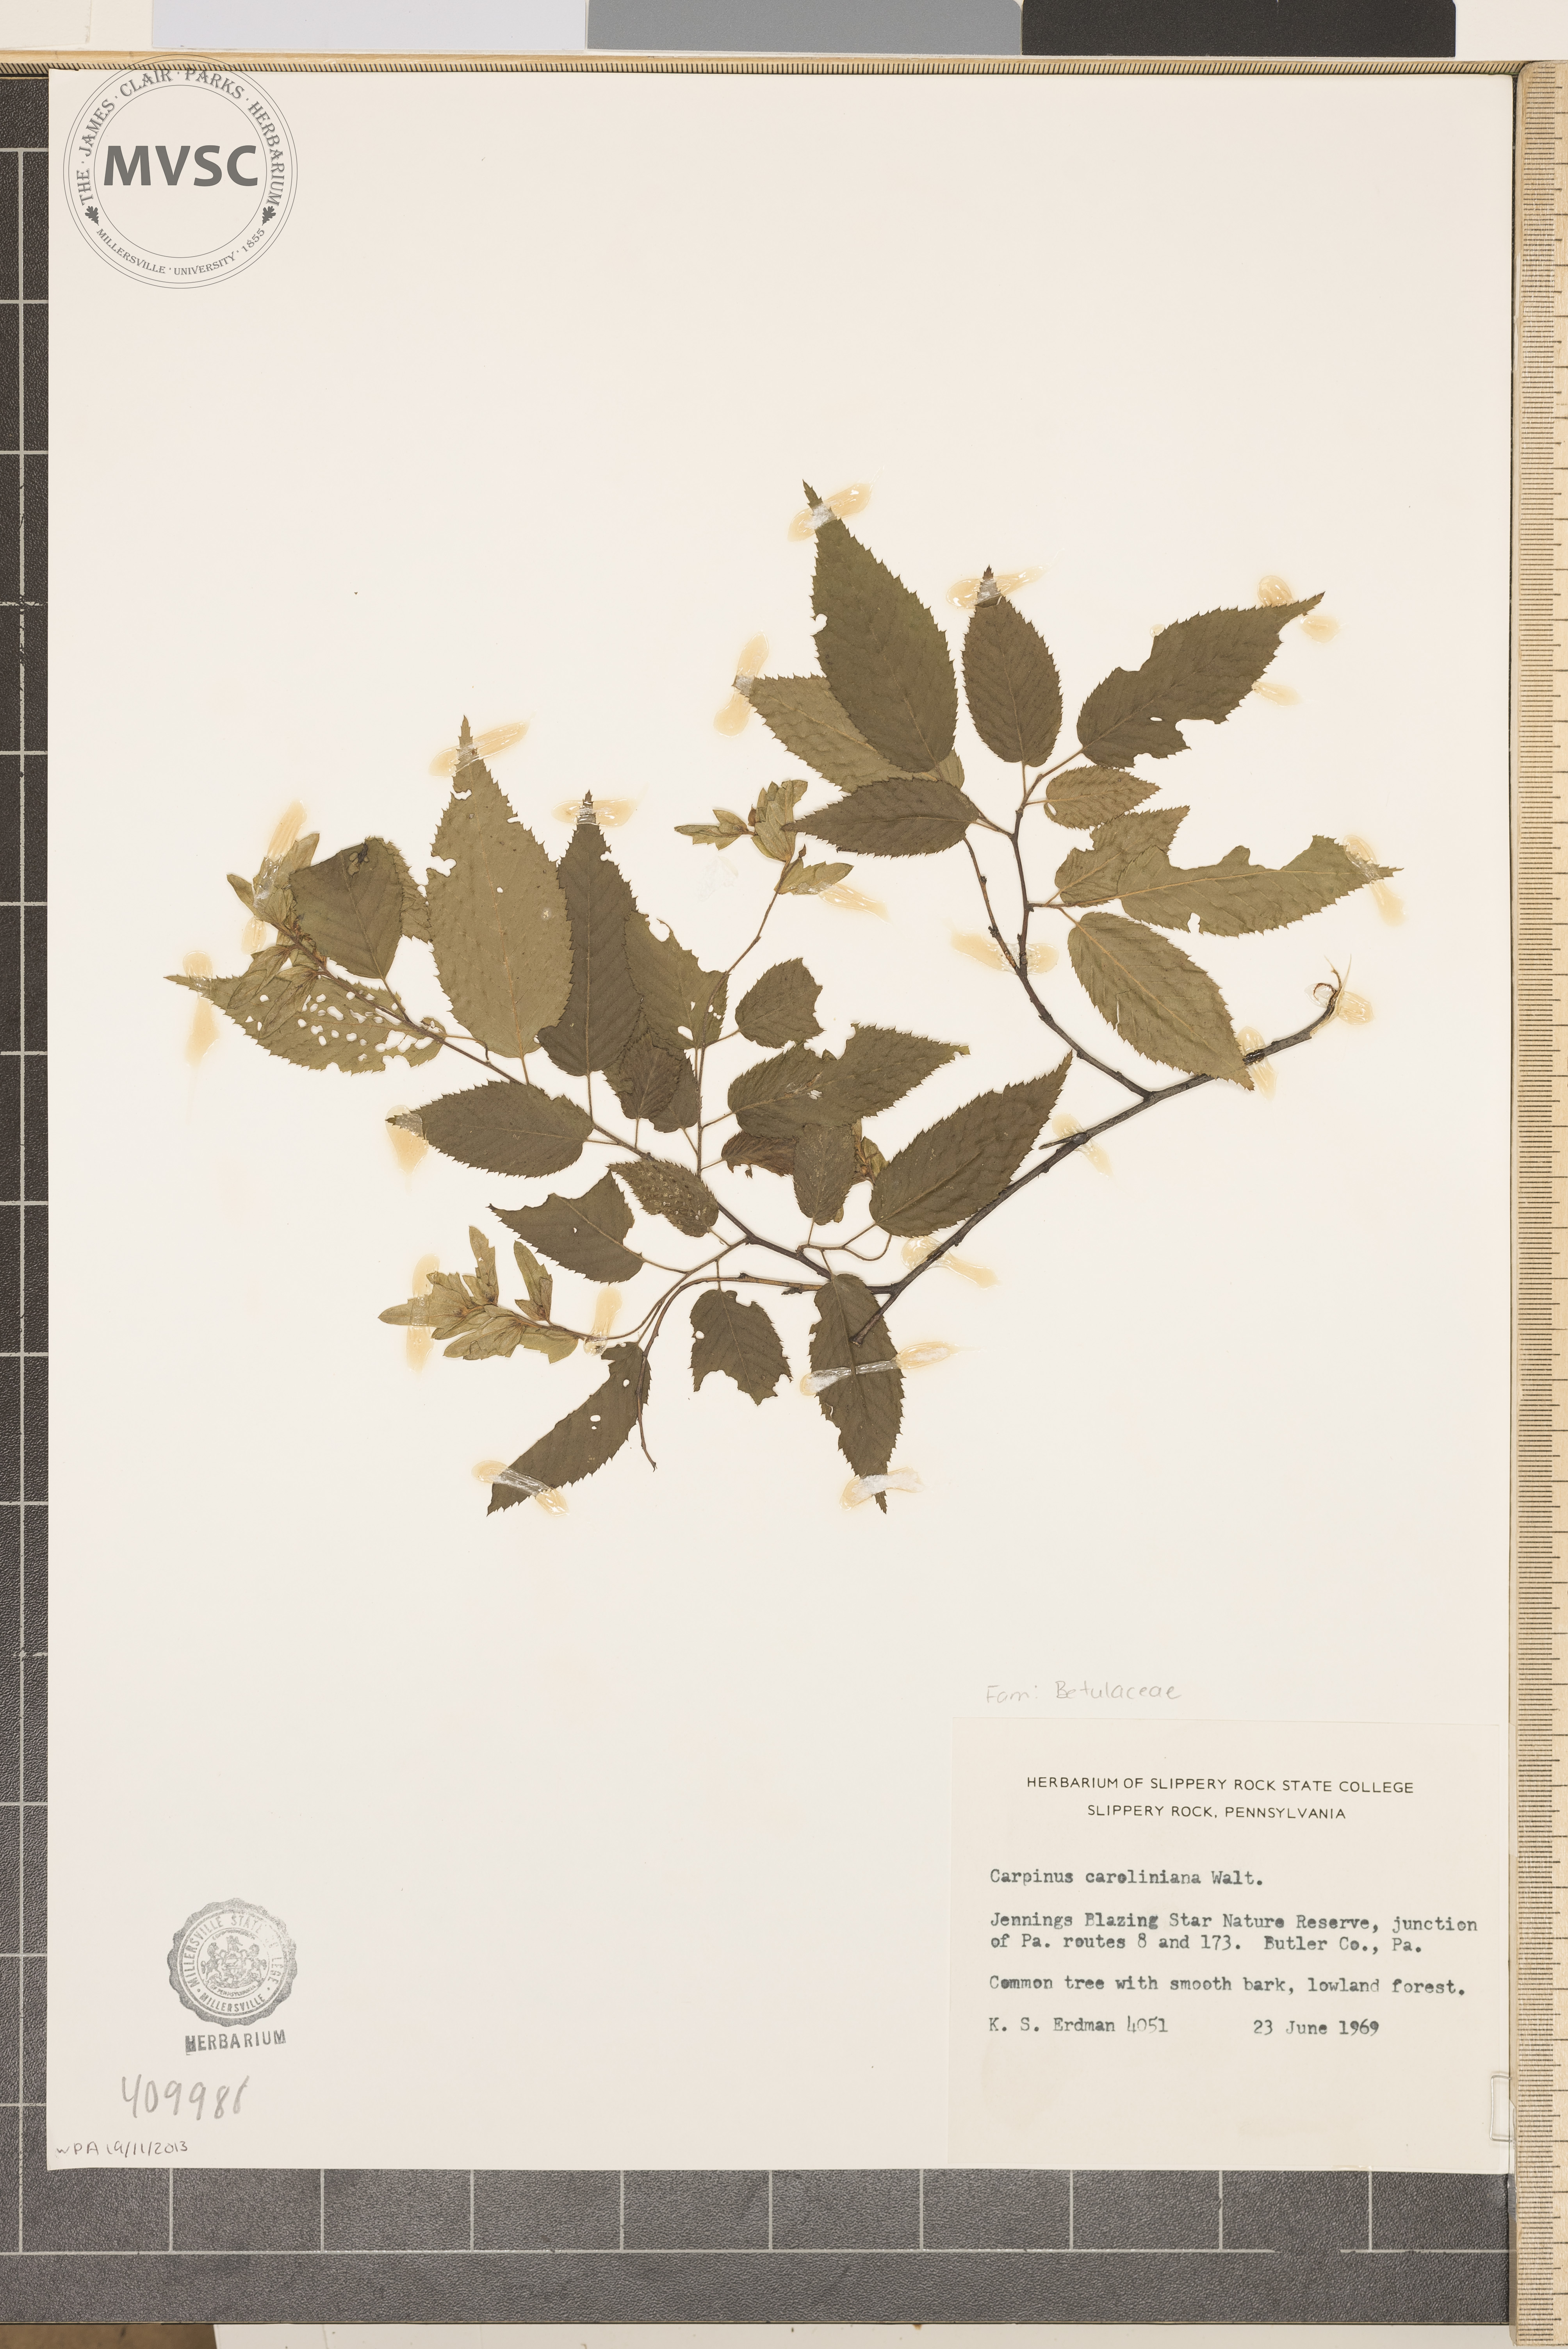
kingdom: Plantae
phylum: Tracheophyta
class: Magnoliopsida
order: Fagales
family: Betulaceae
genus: Carpinus
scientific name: Carpinus caroliniana
